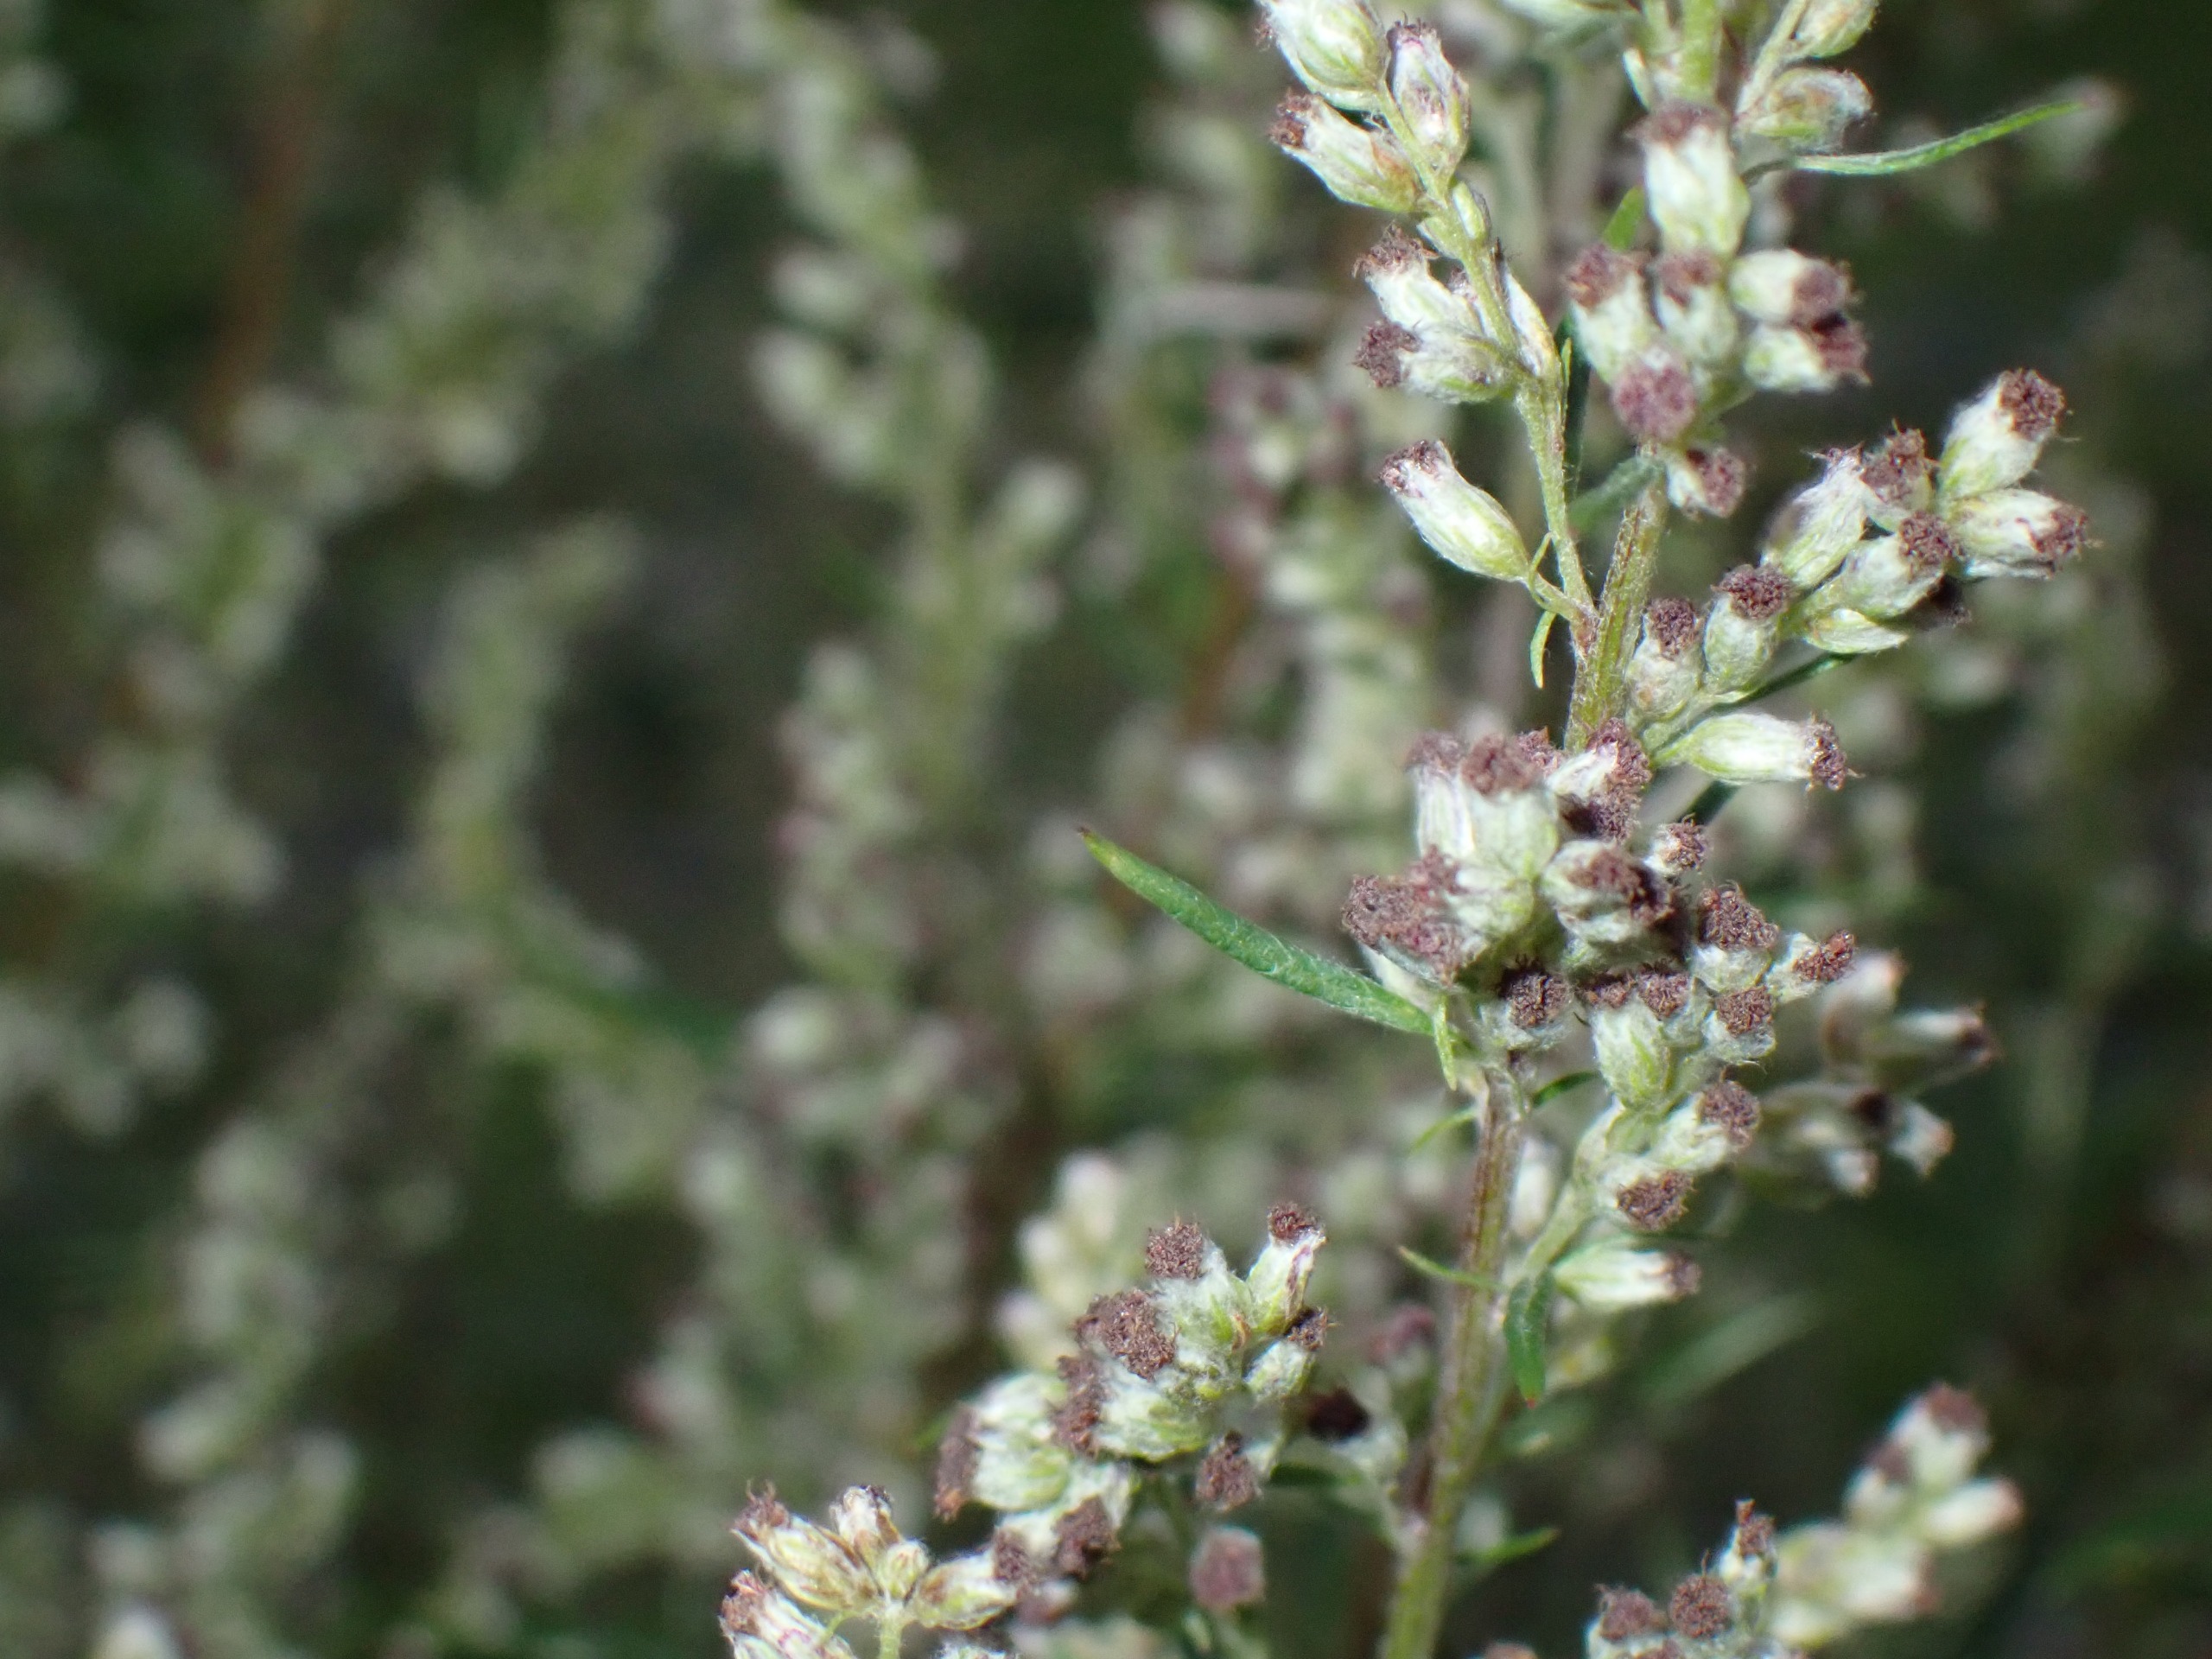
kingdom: Plantae
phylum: Tracheophyta
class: Magnoliopsida
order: Asterales
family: Asteraceae
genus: Artemisia
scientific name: Artemisia vulgaris
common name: Grå-bynke
